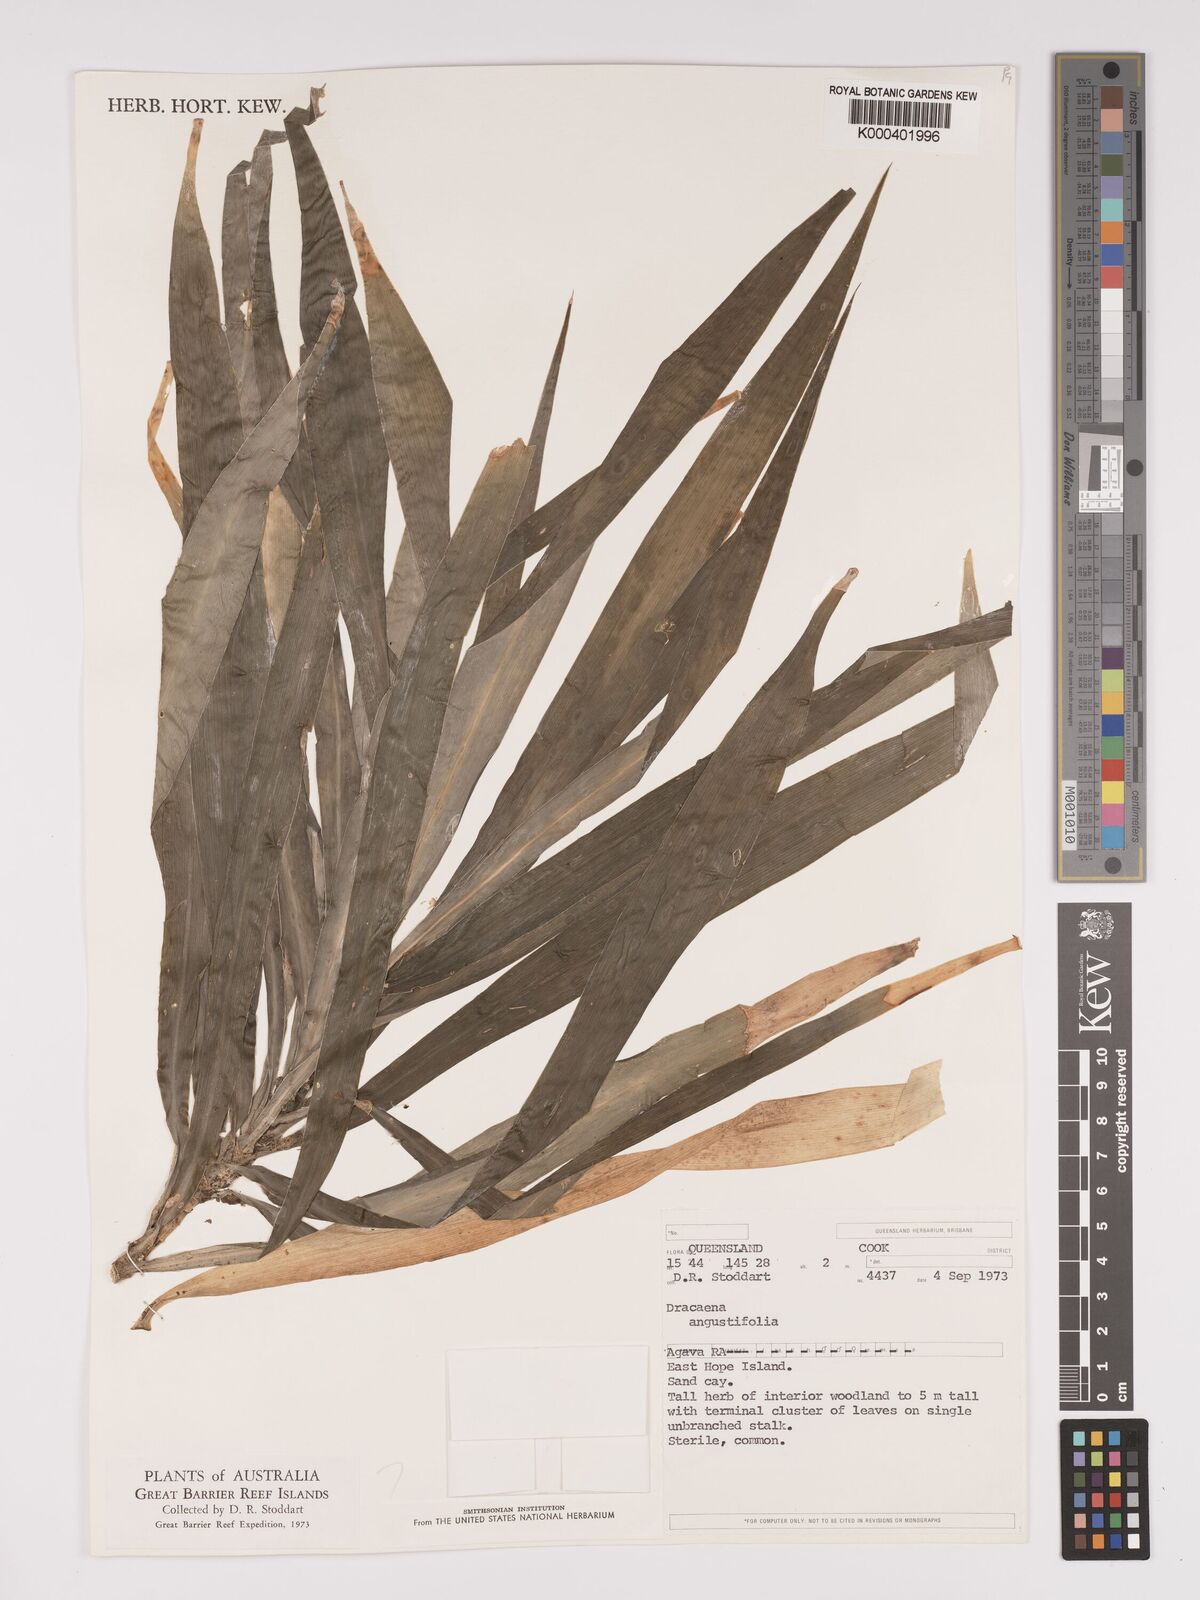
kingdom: Plantae
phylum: Tracheophyta
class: Liliopsida
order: Asparagales
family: Asparagaceae
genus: Dracaena
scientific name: Dracaena angustifolia
